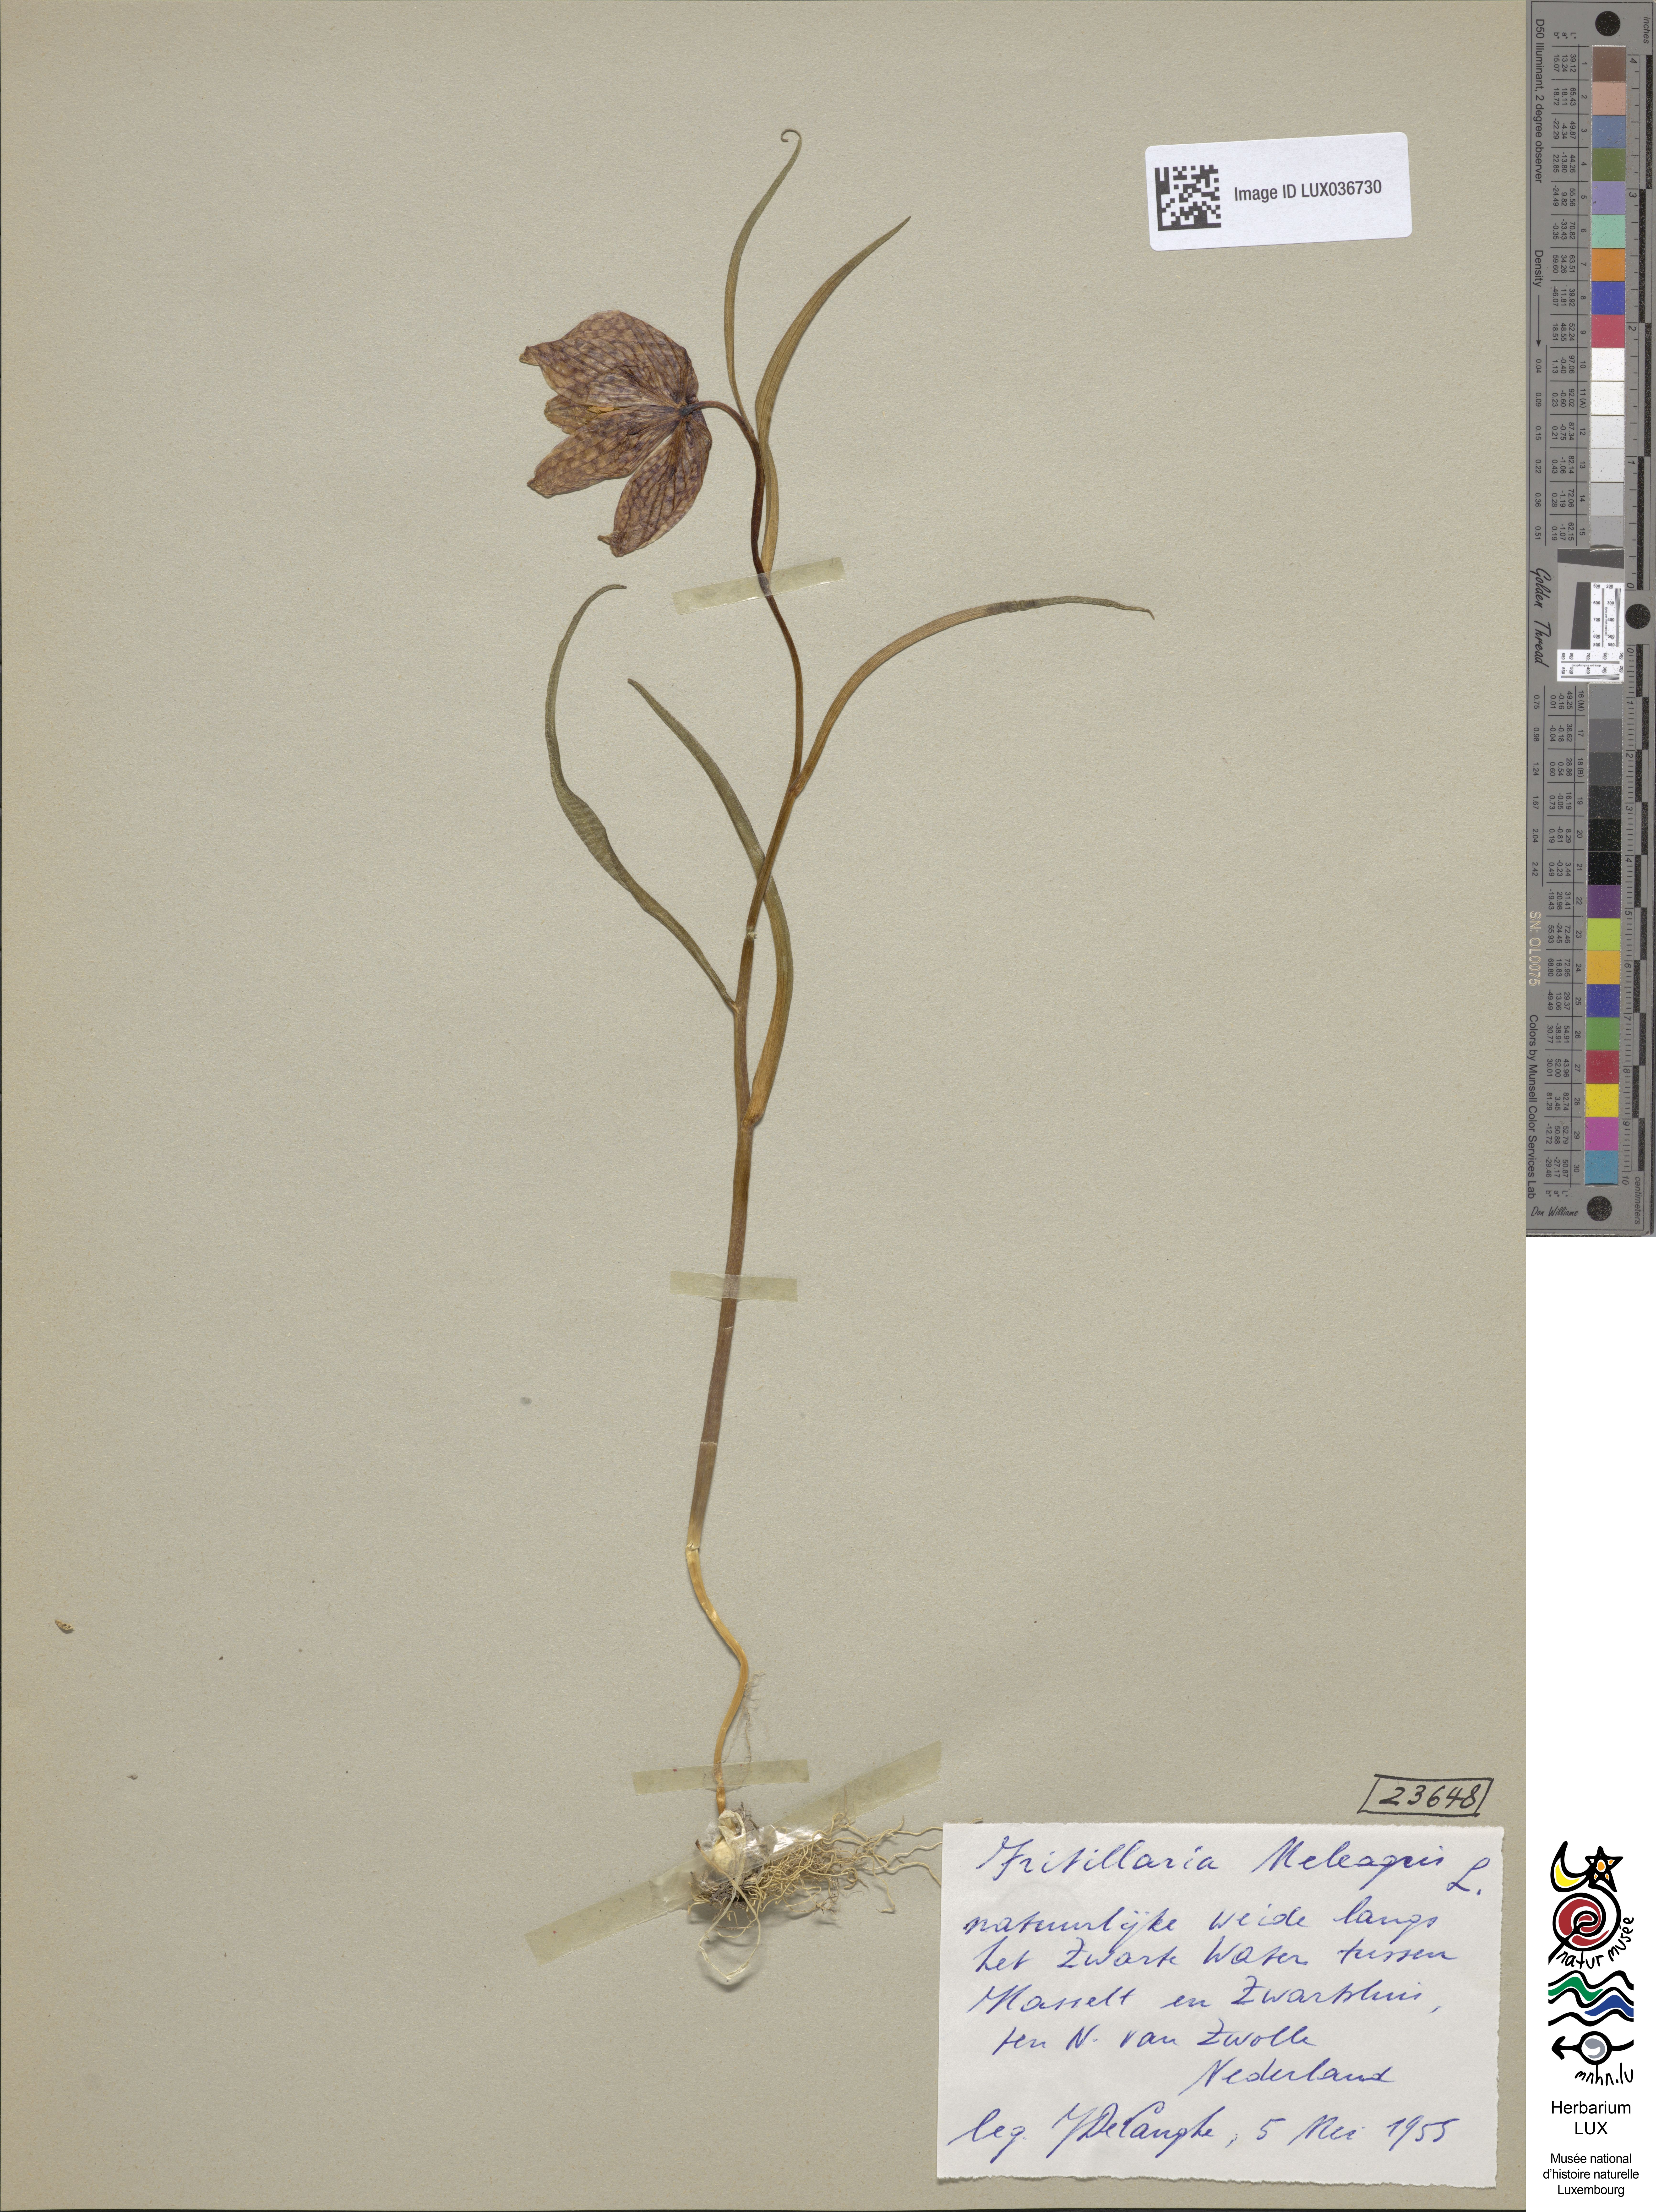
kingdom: Plantae
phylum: Tracheophyta
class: Liliopsida
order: Liliales
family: Liliaceae
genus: Fritillaria
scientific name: Fritillaria meleagris
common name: Fritillary
